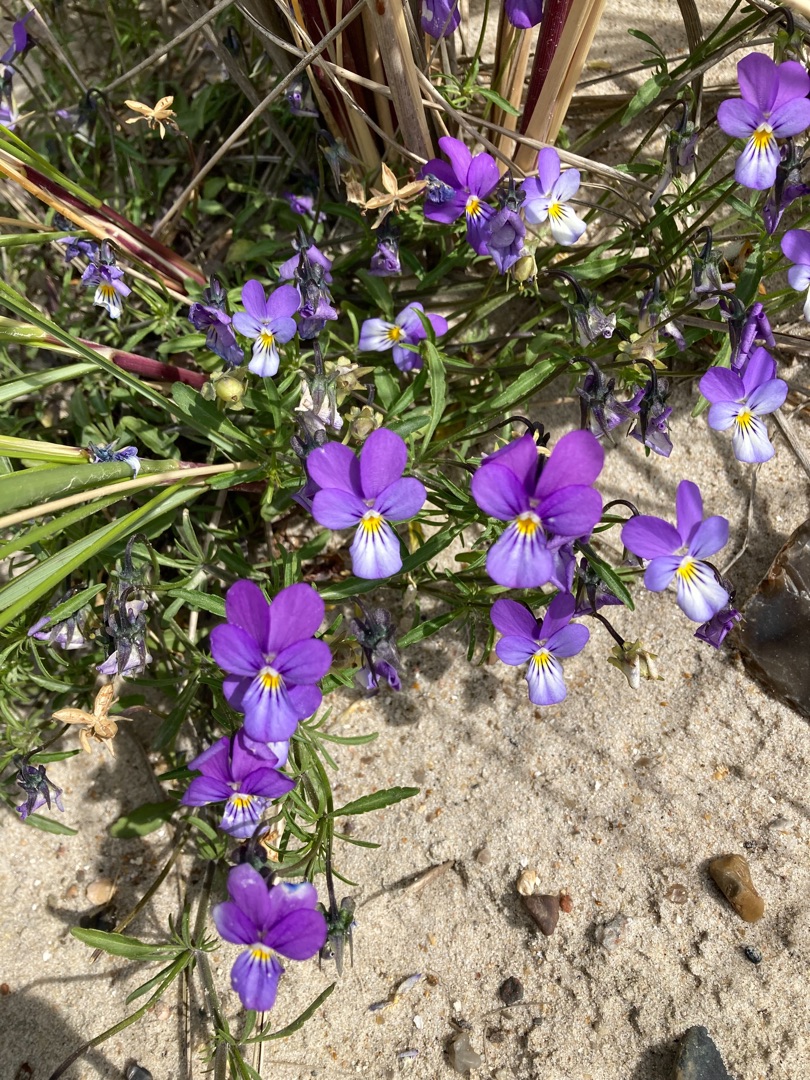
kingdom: Plantae
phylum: Tracheophyta
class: Magnoliopsida
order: Malpighiales
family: Violaceae
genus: Viola
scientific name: Viola tricolor
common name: Stedmoderblomst
